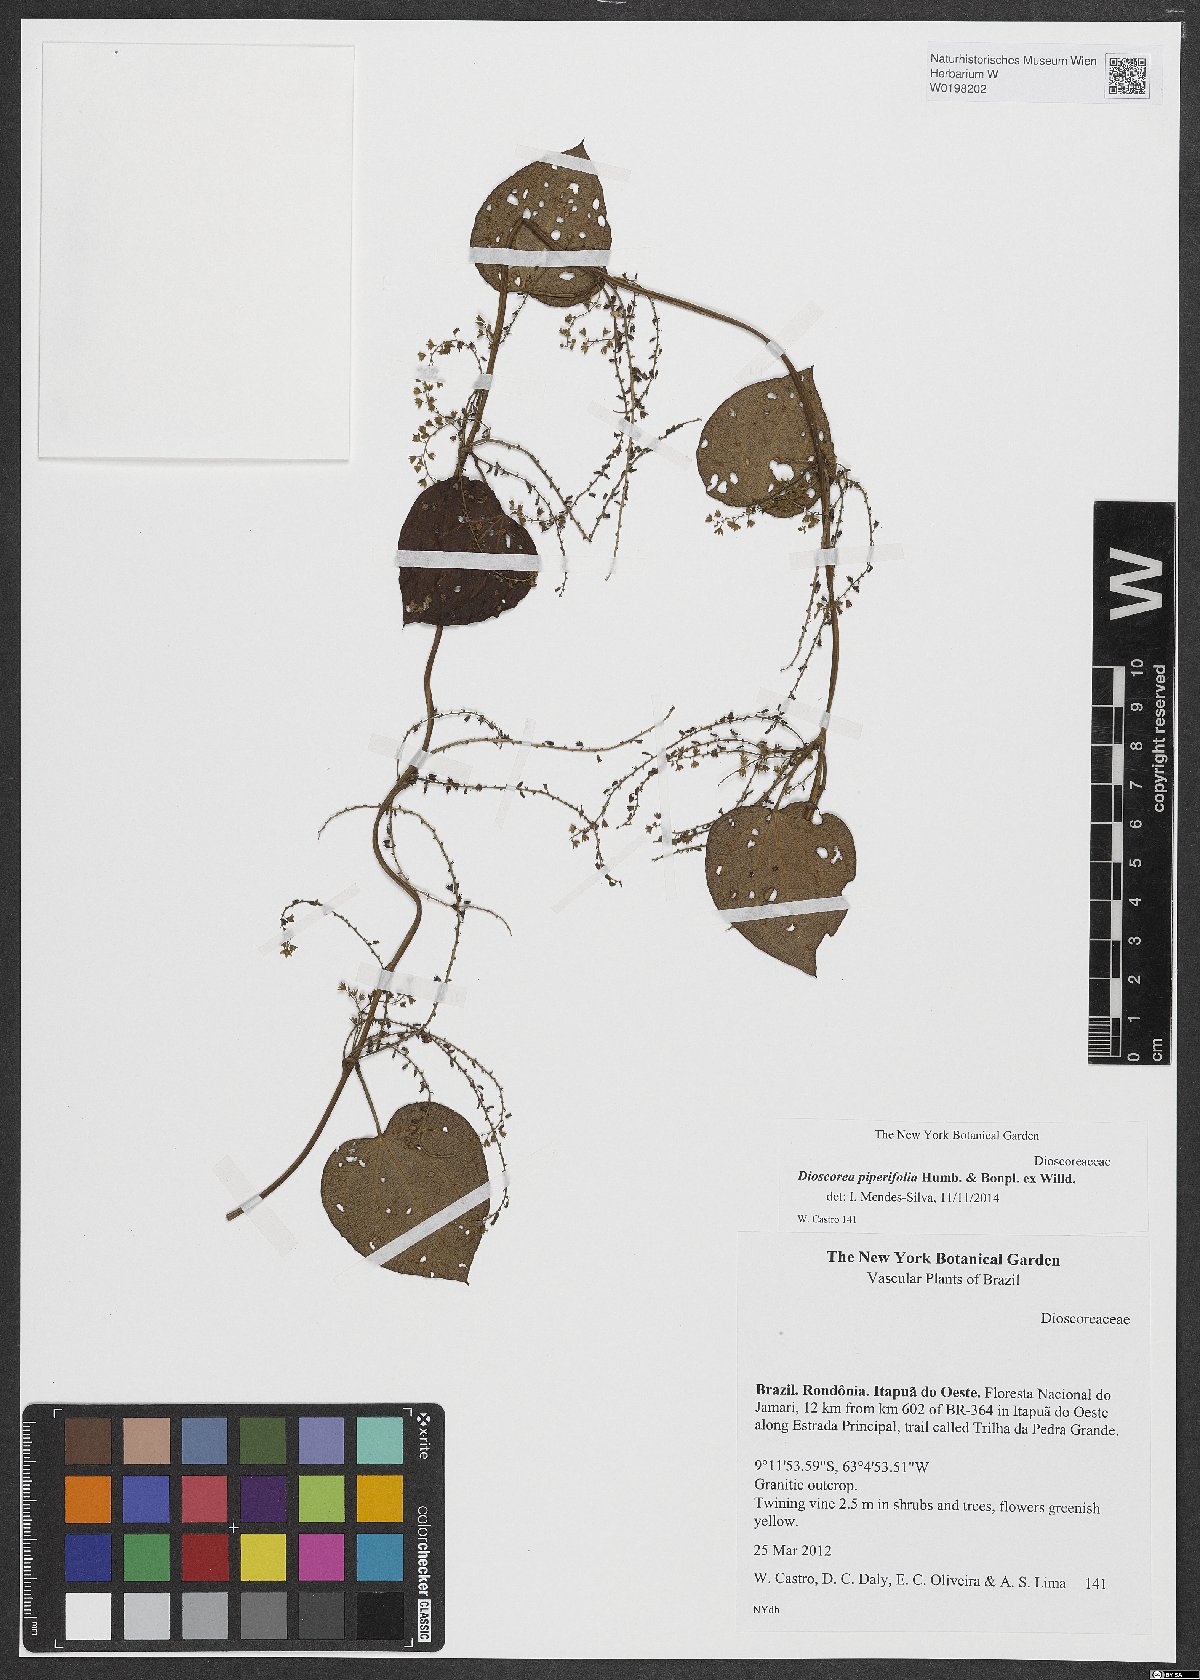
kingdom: Plantae
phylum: Tracheophyta
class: Liliopsida
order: Dioscoreales
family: Dioscoreaceae
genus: Dioscorea
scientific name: Dioscorea piperifolia
